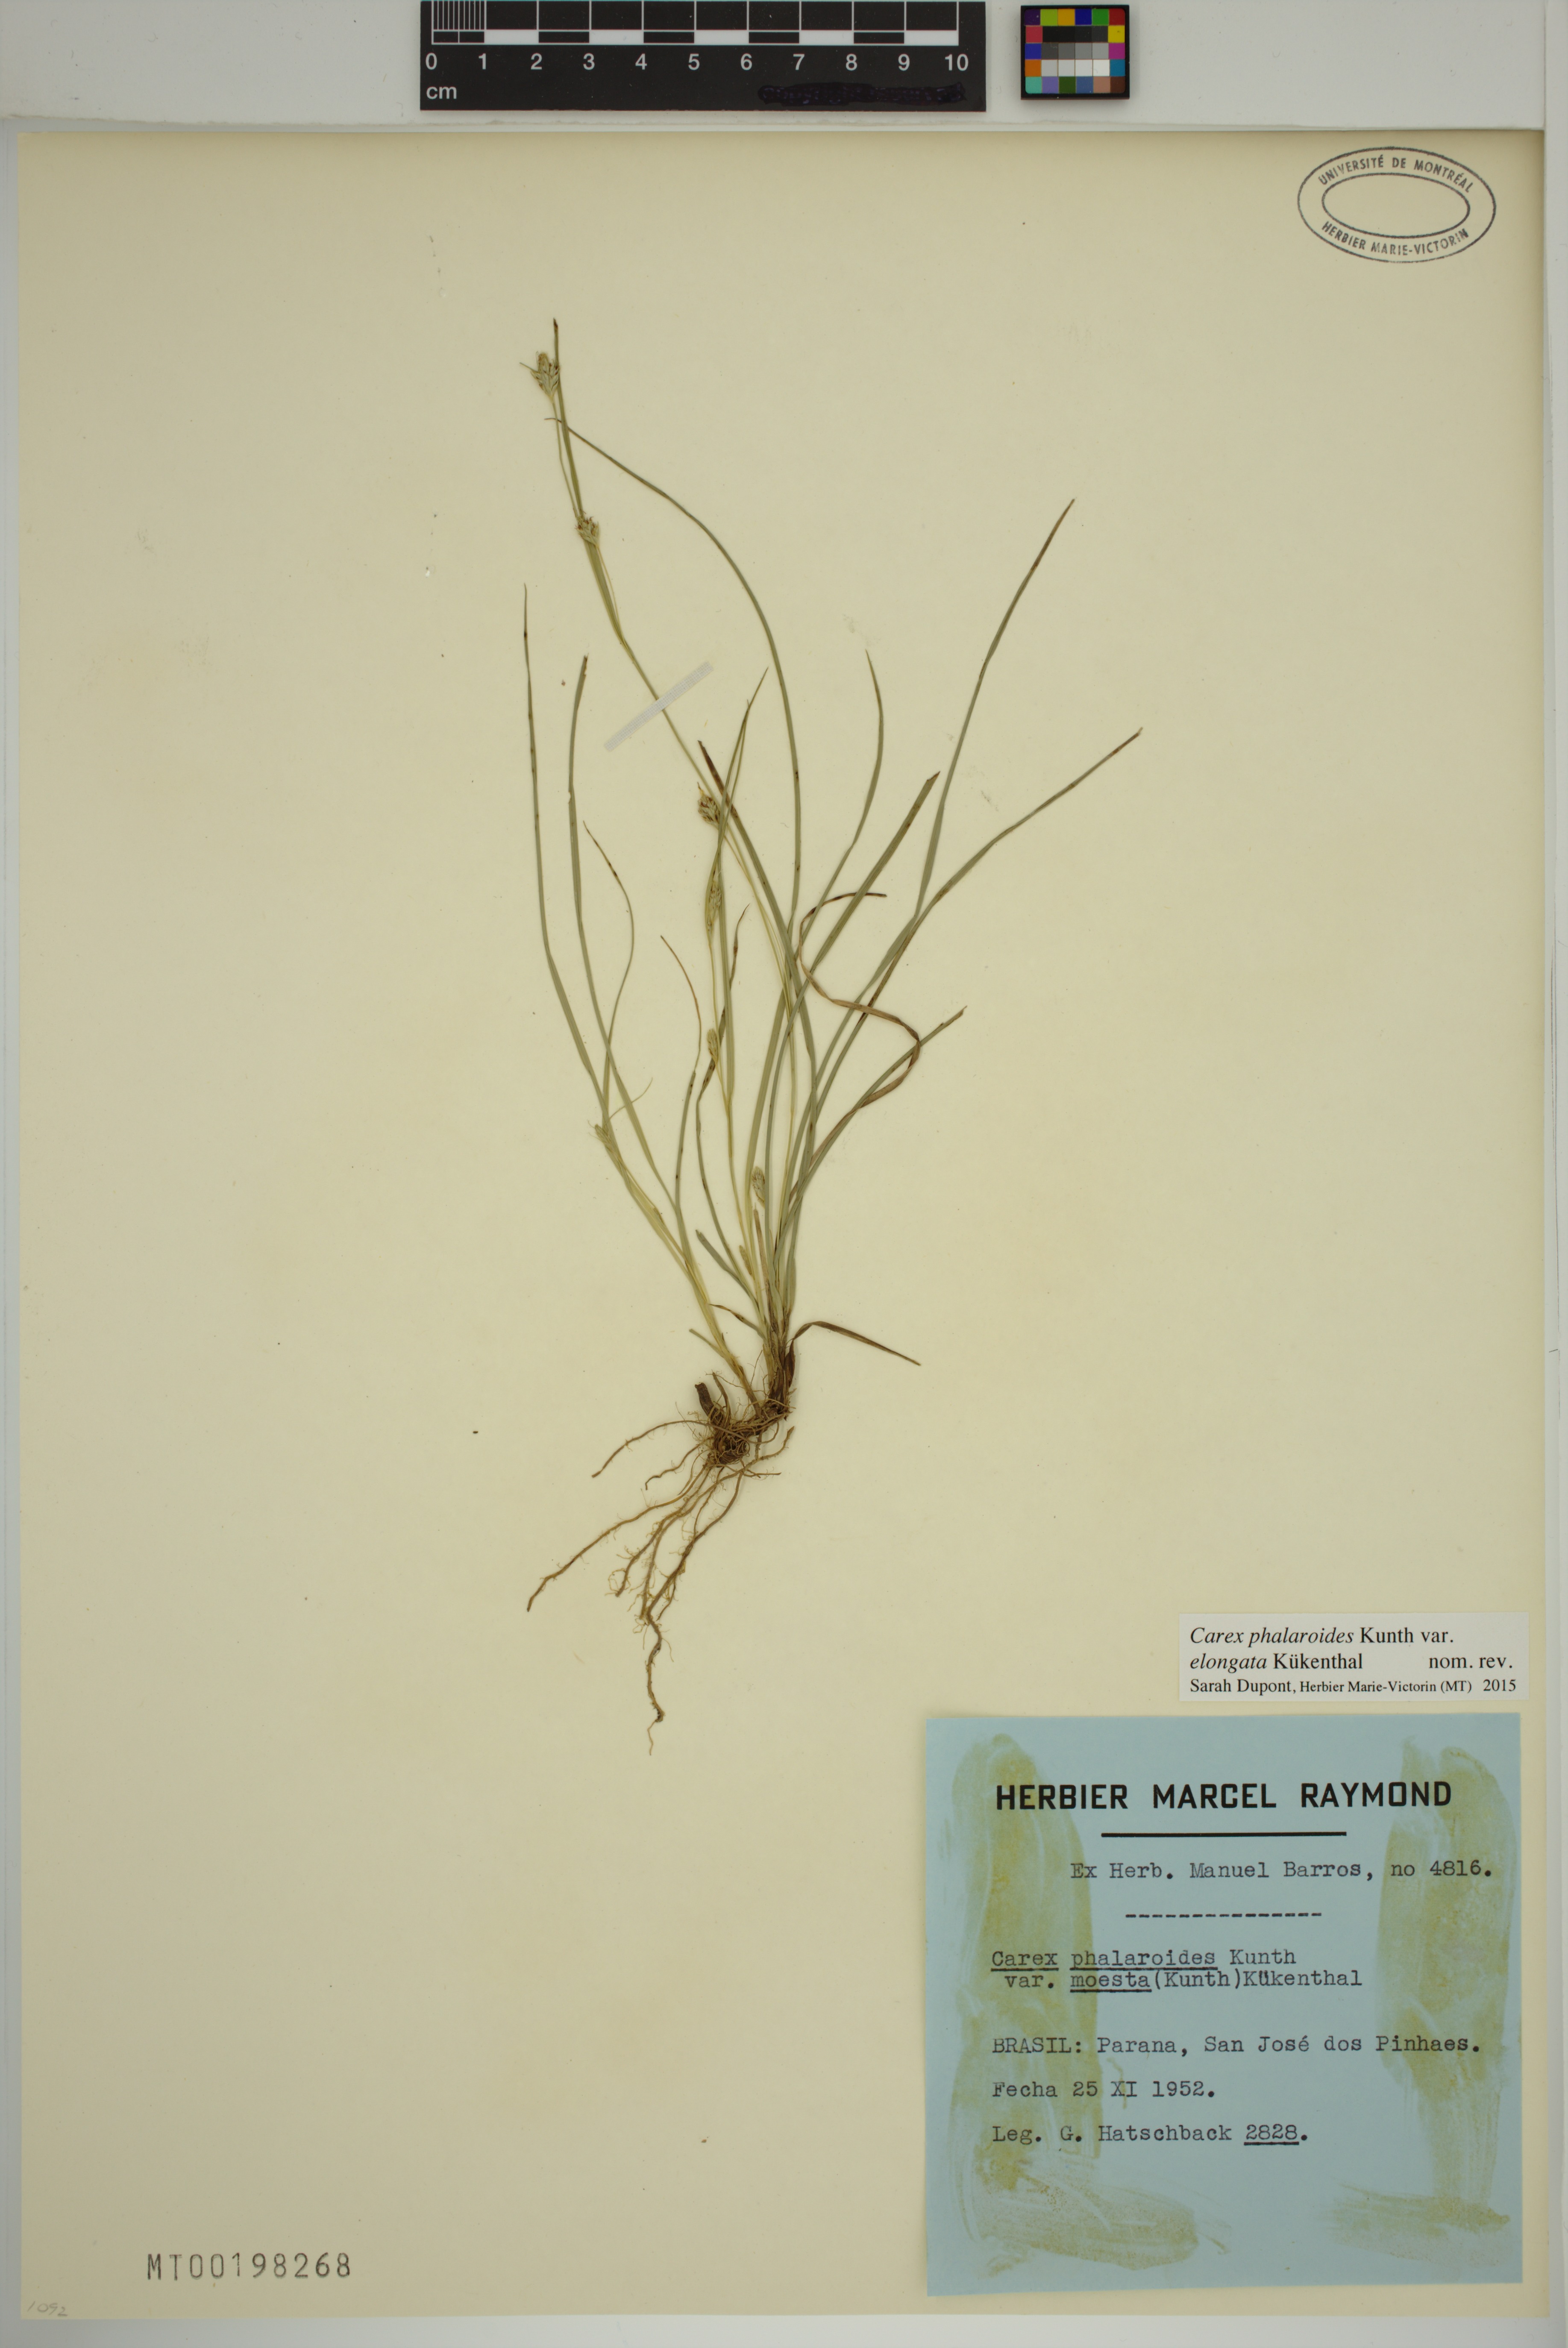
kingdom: Plantae
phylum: Tracheophyta
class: Liliopsida
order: Poales
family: Cyperaceae
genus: Carex
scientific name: Carex moesta
